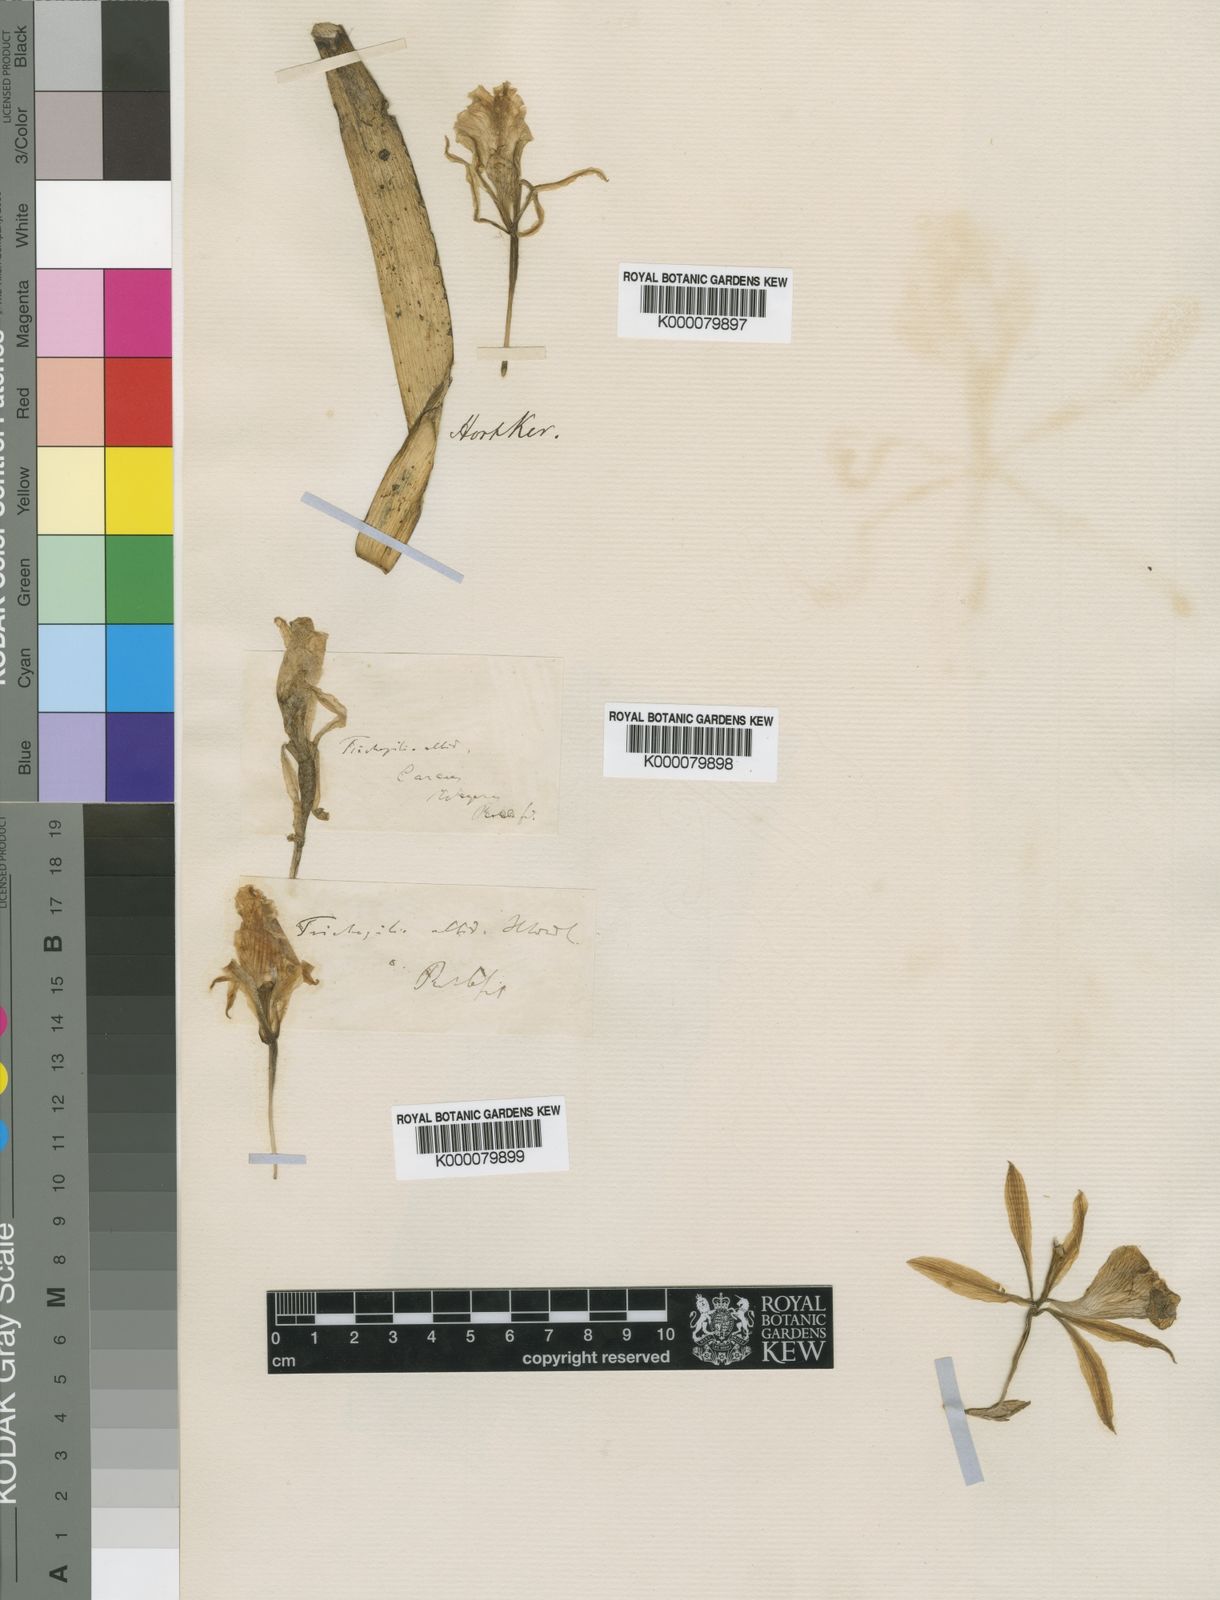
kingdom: Plantae
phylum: Tracheophyta
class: Liliopsida
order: Asparagales
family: Orchidaceae
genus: Trichopilia
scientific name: Trichopilia fragrans
